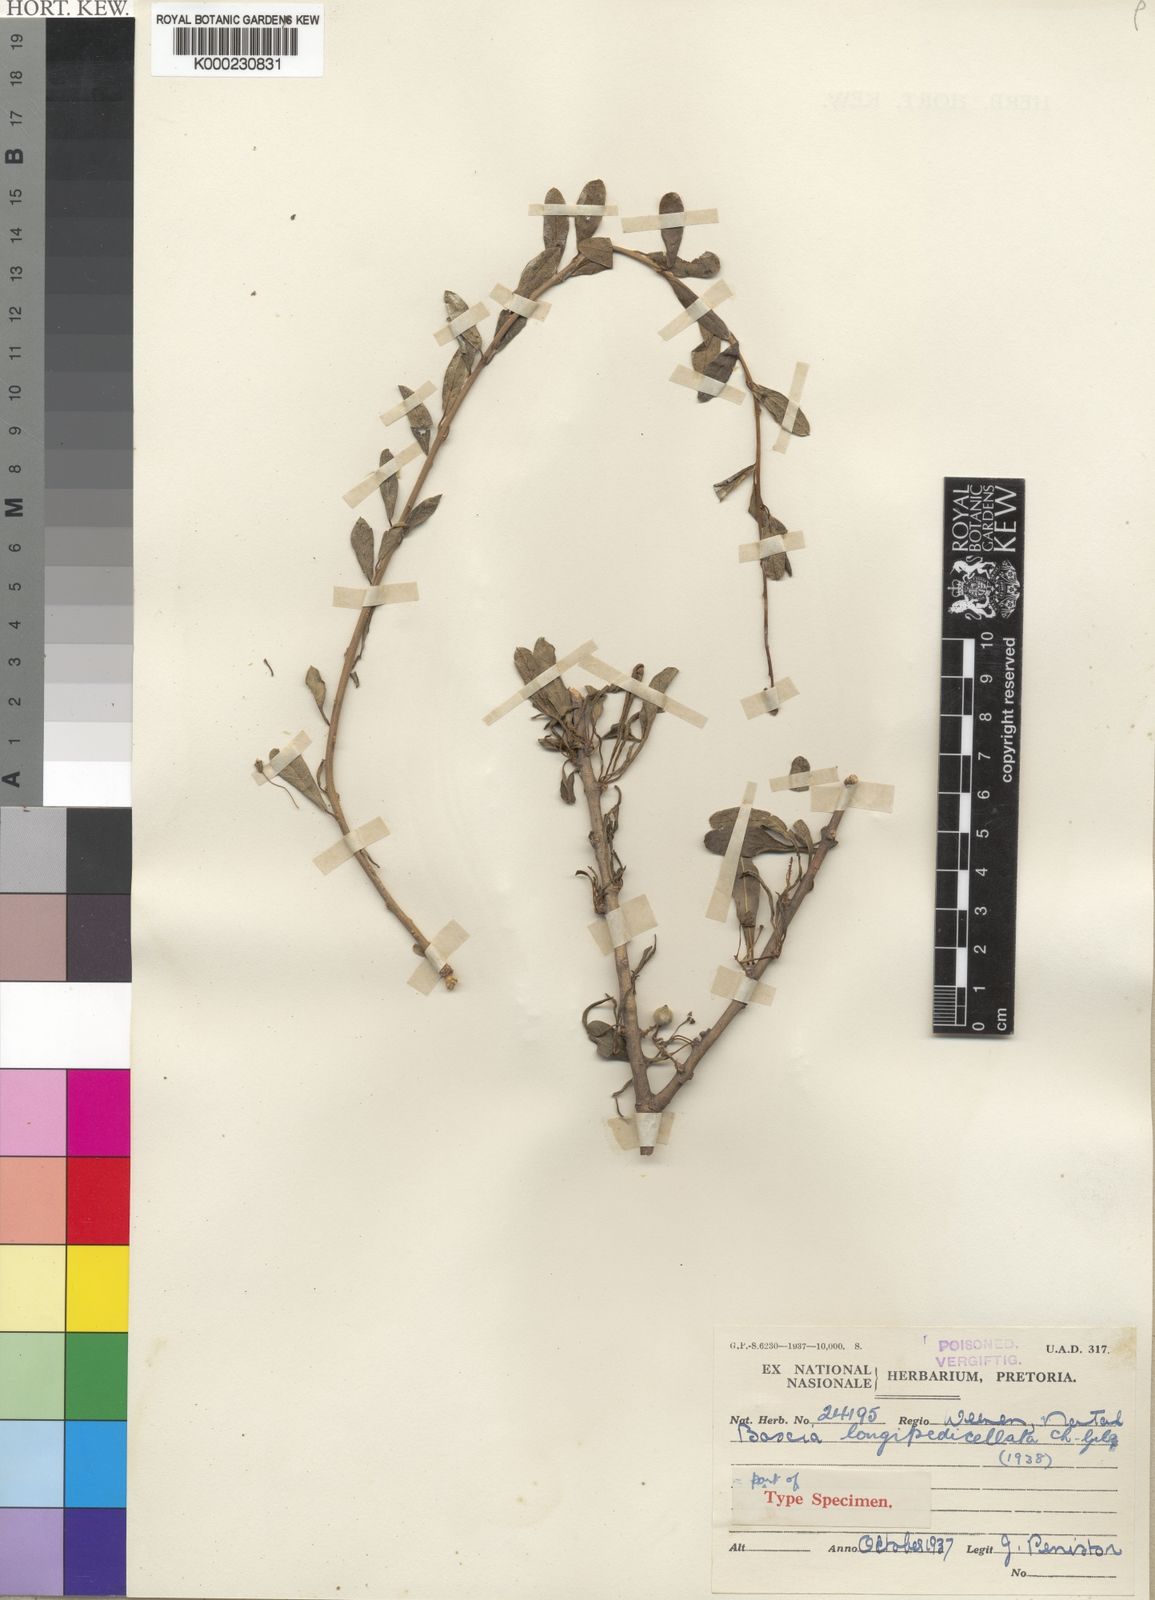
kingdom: Plantae
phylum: Tracheophyta
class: Magnoliopsida
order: Brassicales
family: Capparaceae
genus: Boscia
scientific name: Boscia foetida
